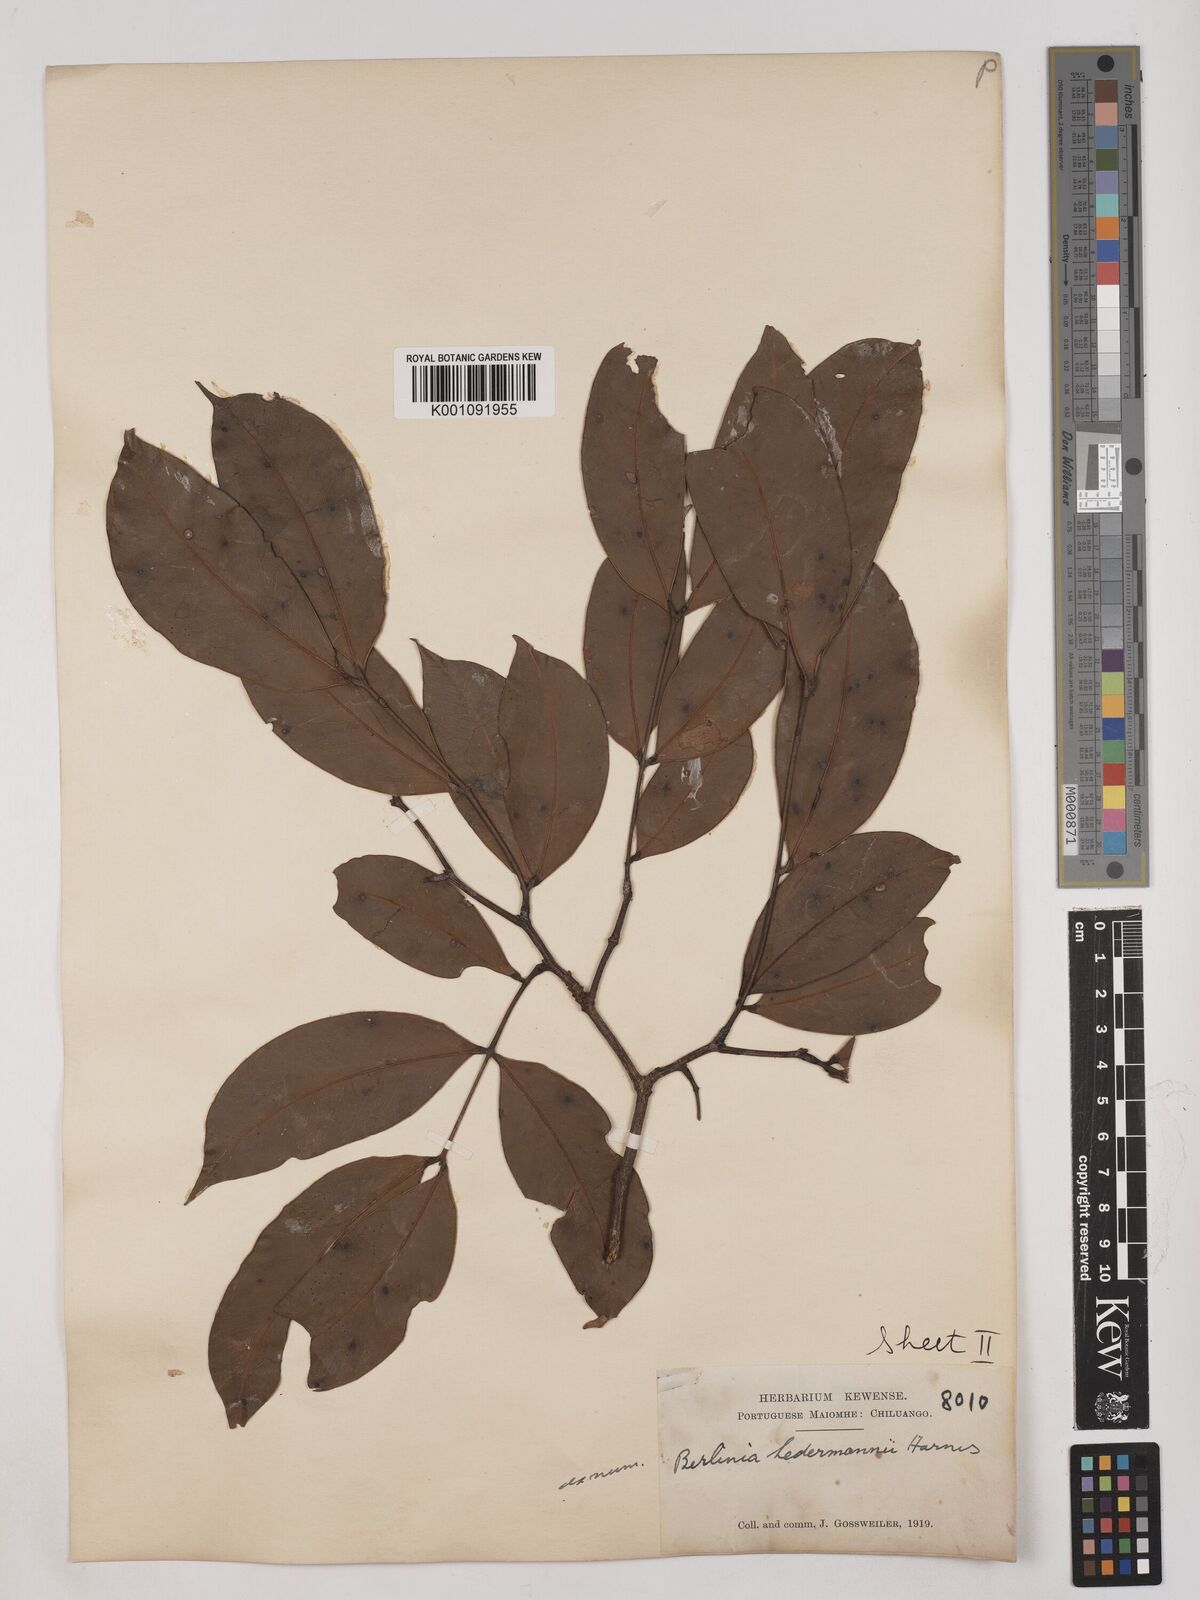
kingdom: Plantae
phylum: Tracheophyta
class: Magnoliopsida
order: Fabales
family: Fabaceae
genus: Julbernardia
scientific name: Julbernardia seretii
